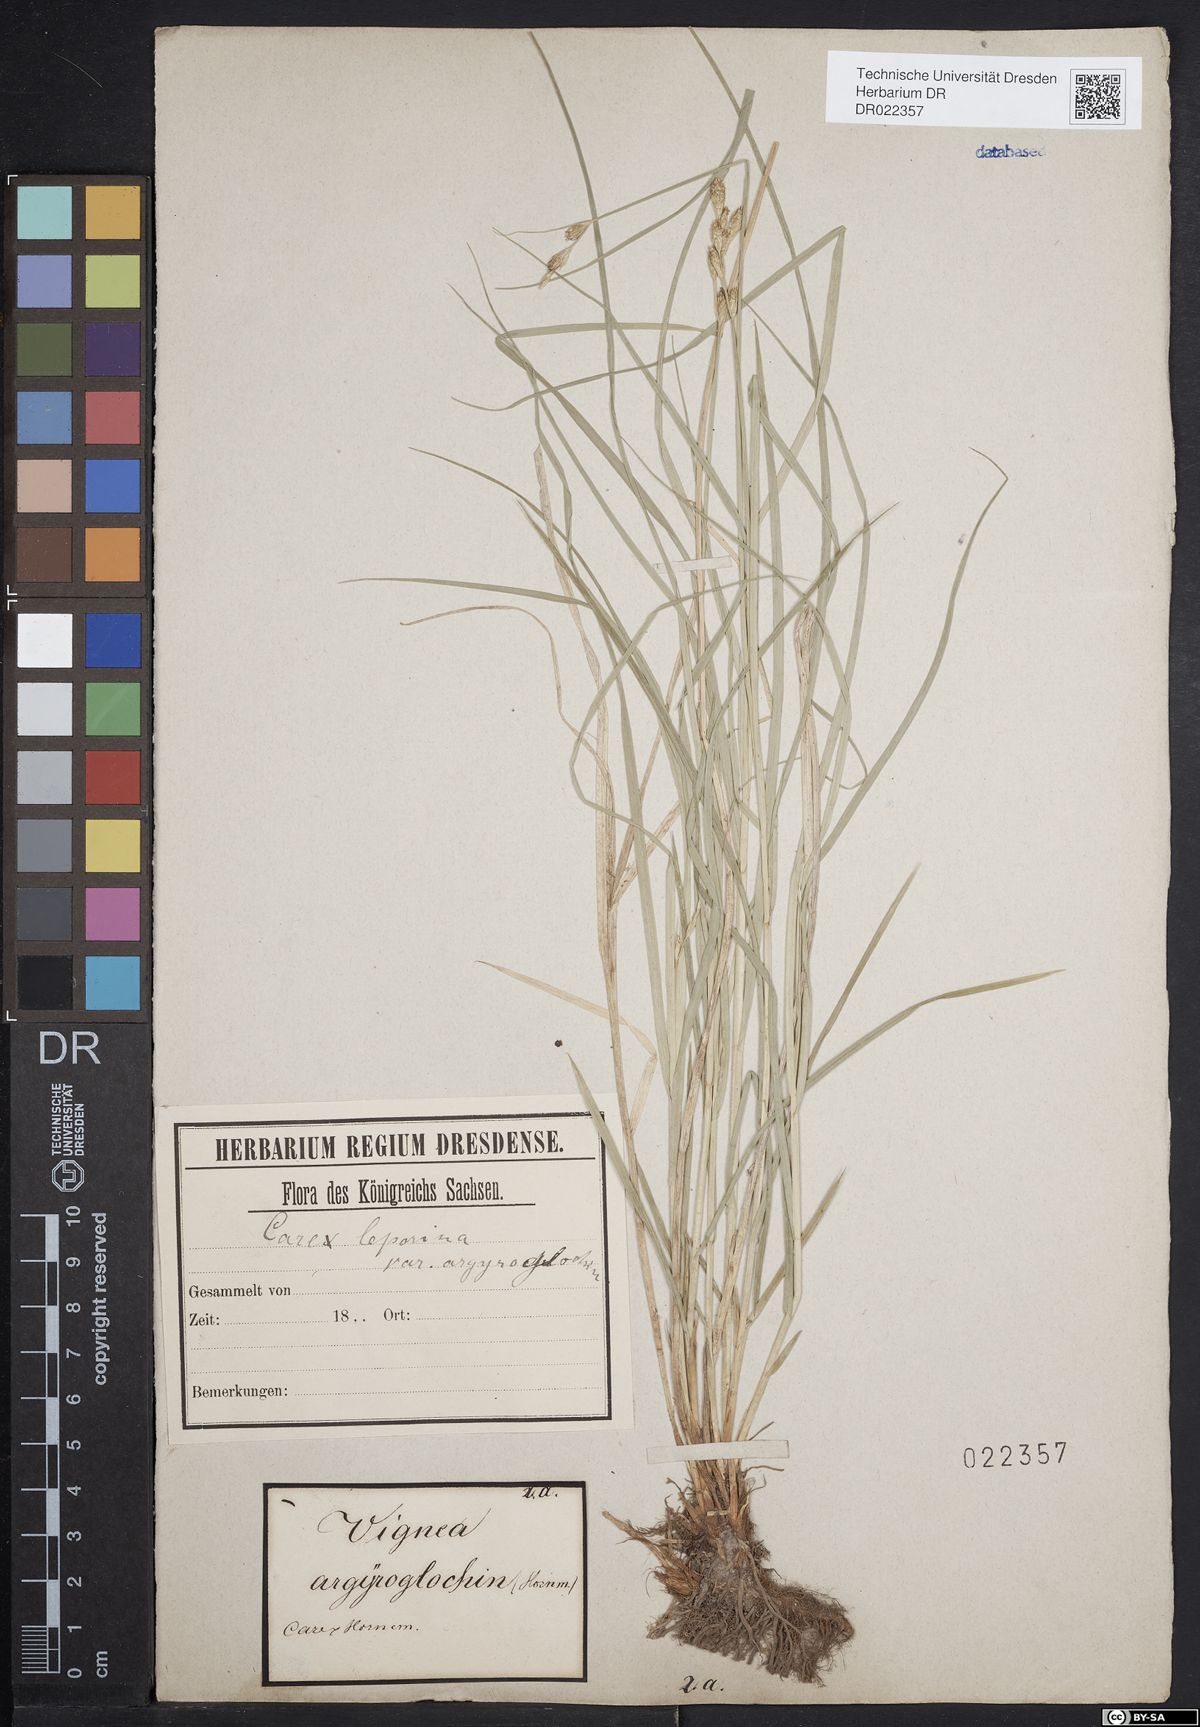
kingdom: Plantae
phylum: Tracheophyta
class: Liliopsida
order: Poales
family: Cyperaceae
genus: Carex
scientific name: Carex leporina
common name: Oval sedge
